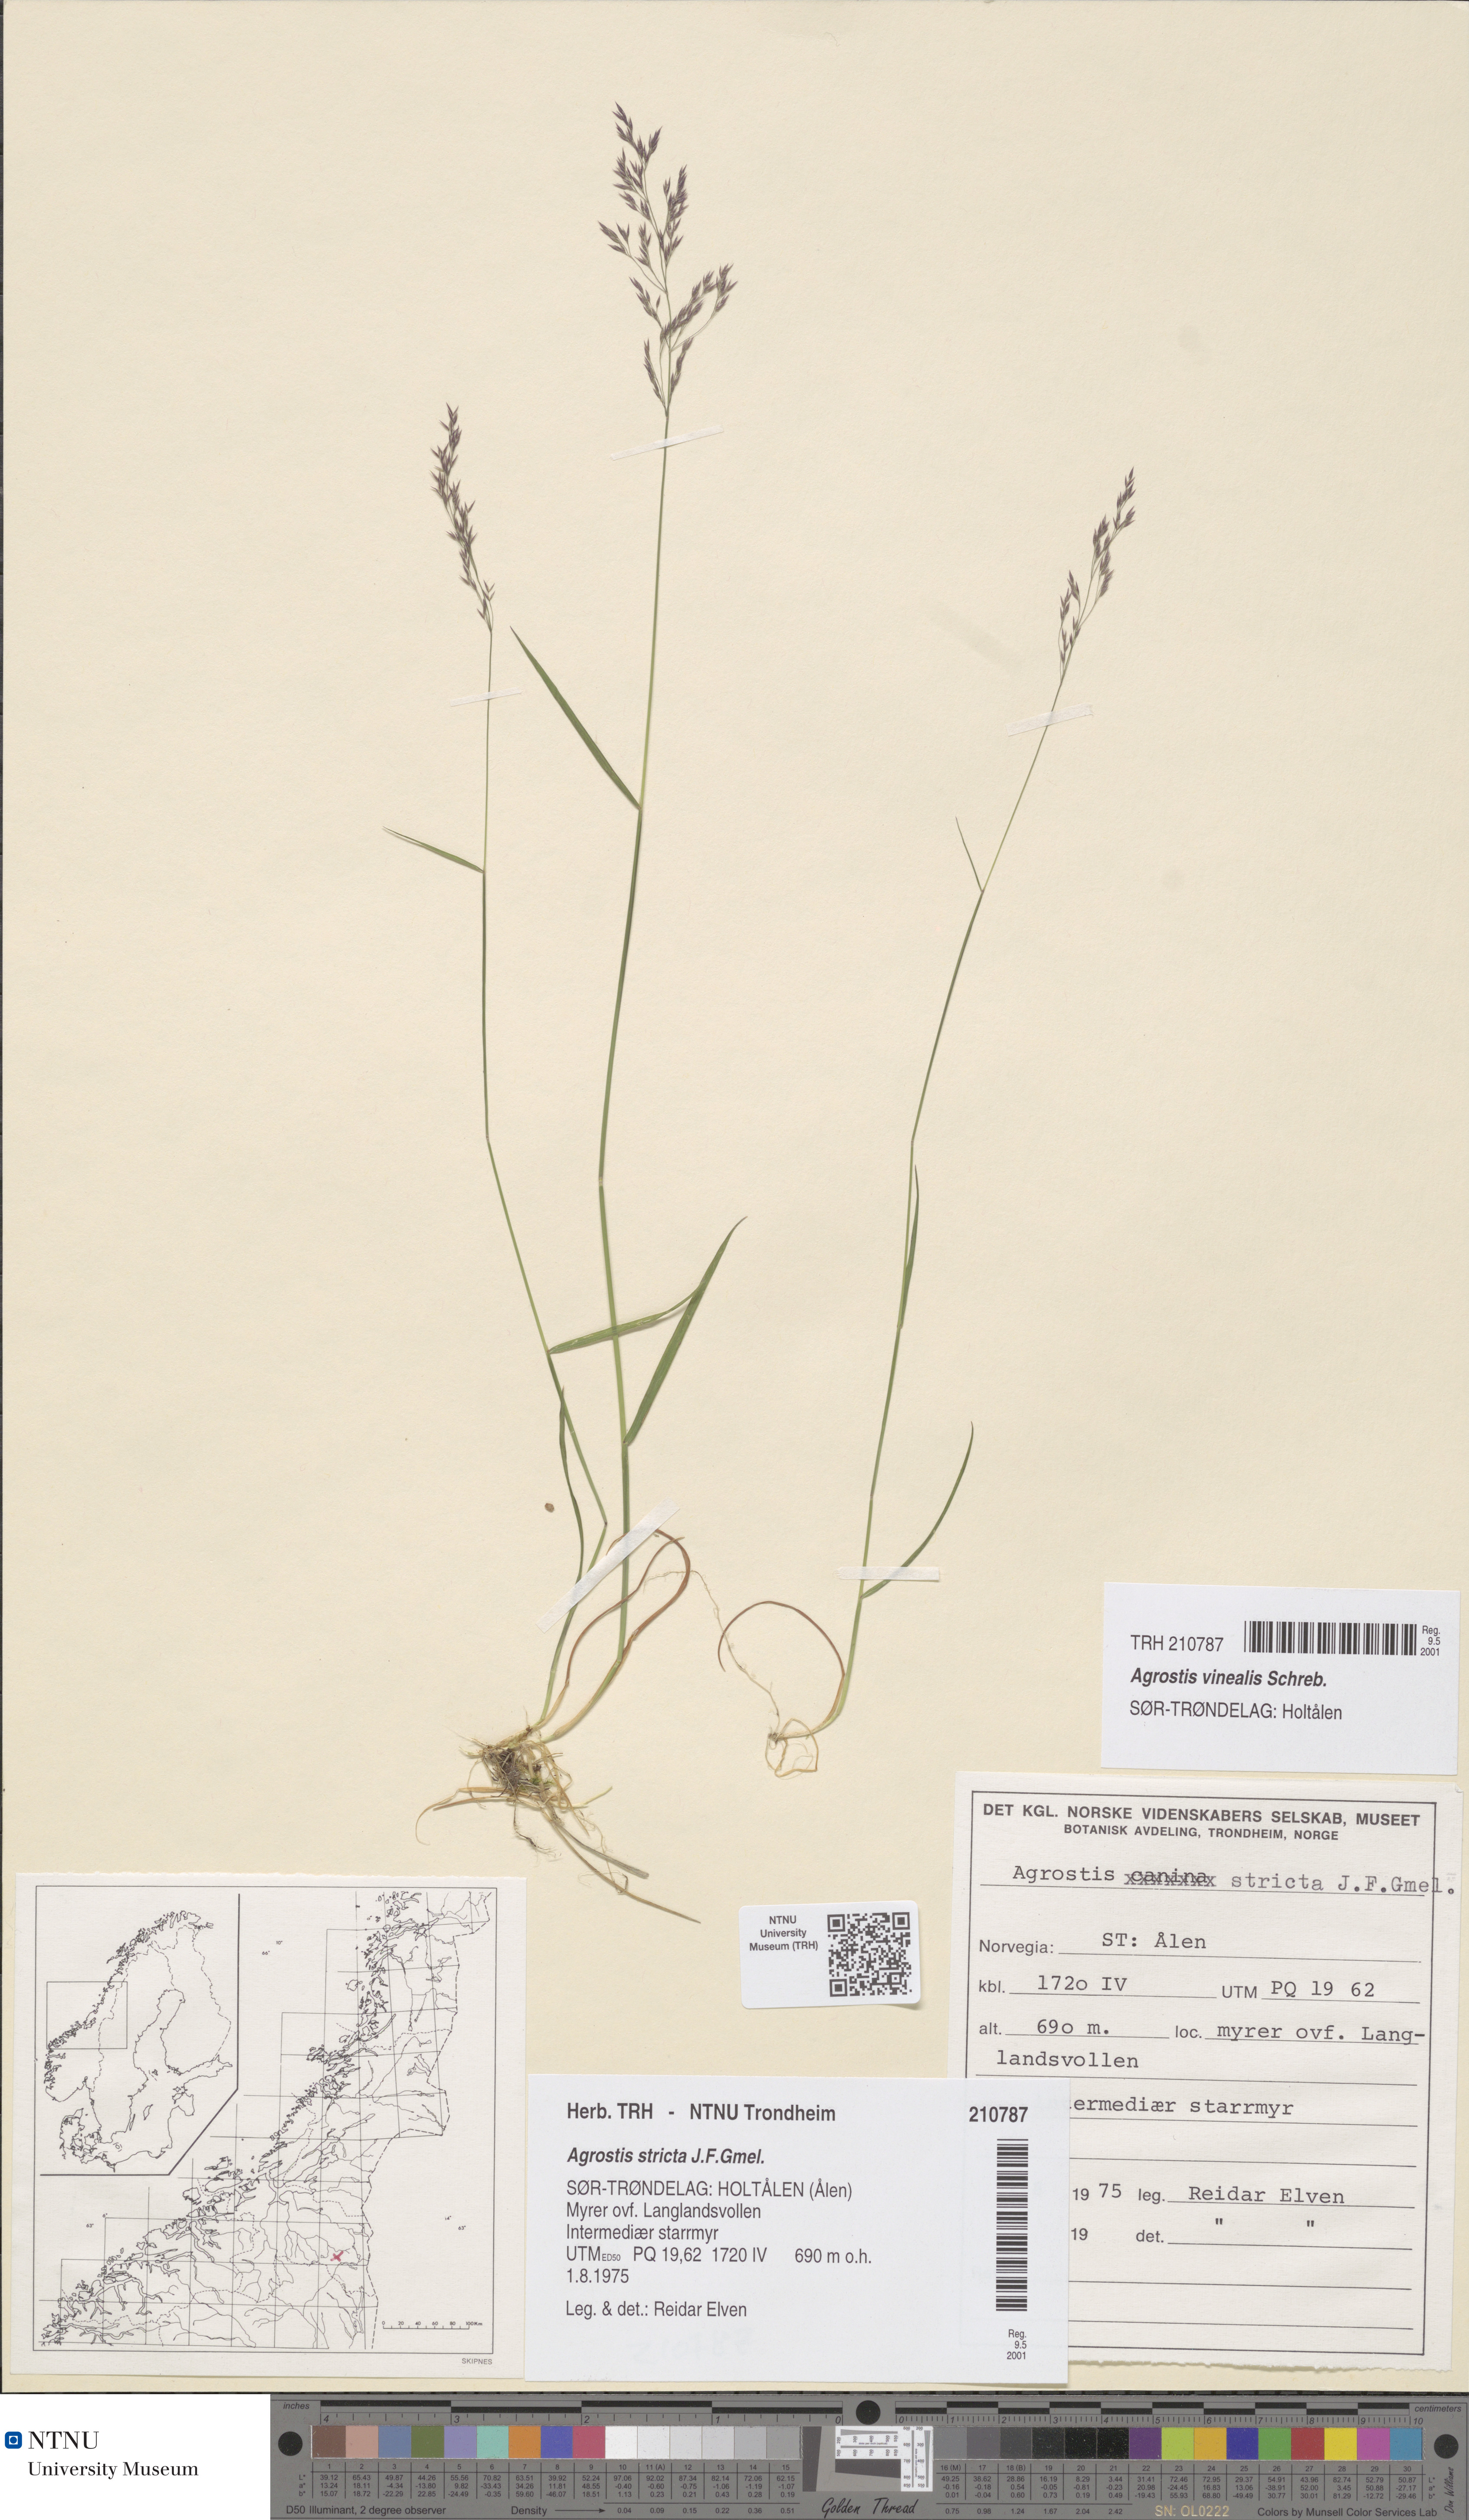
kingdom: Plantae
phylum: Tracheophyta
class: Liliopsida
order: Poales
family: Poaceae
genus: Agrostis
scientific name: Agrostis vinealis
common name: Brown bent
